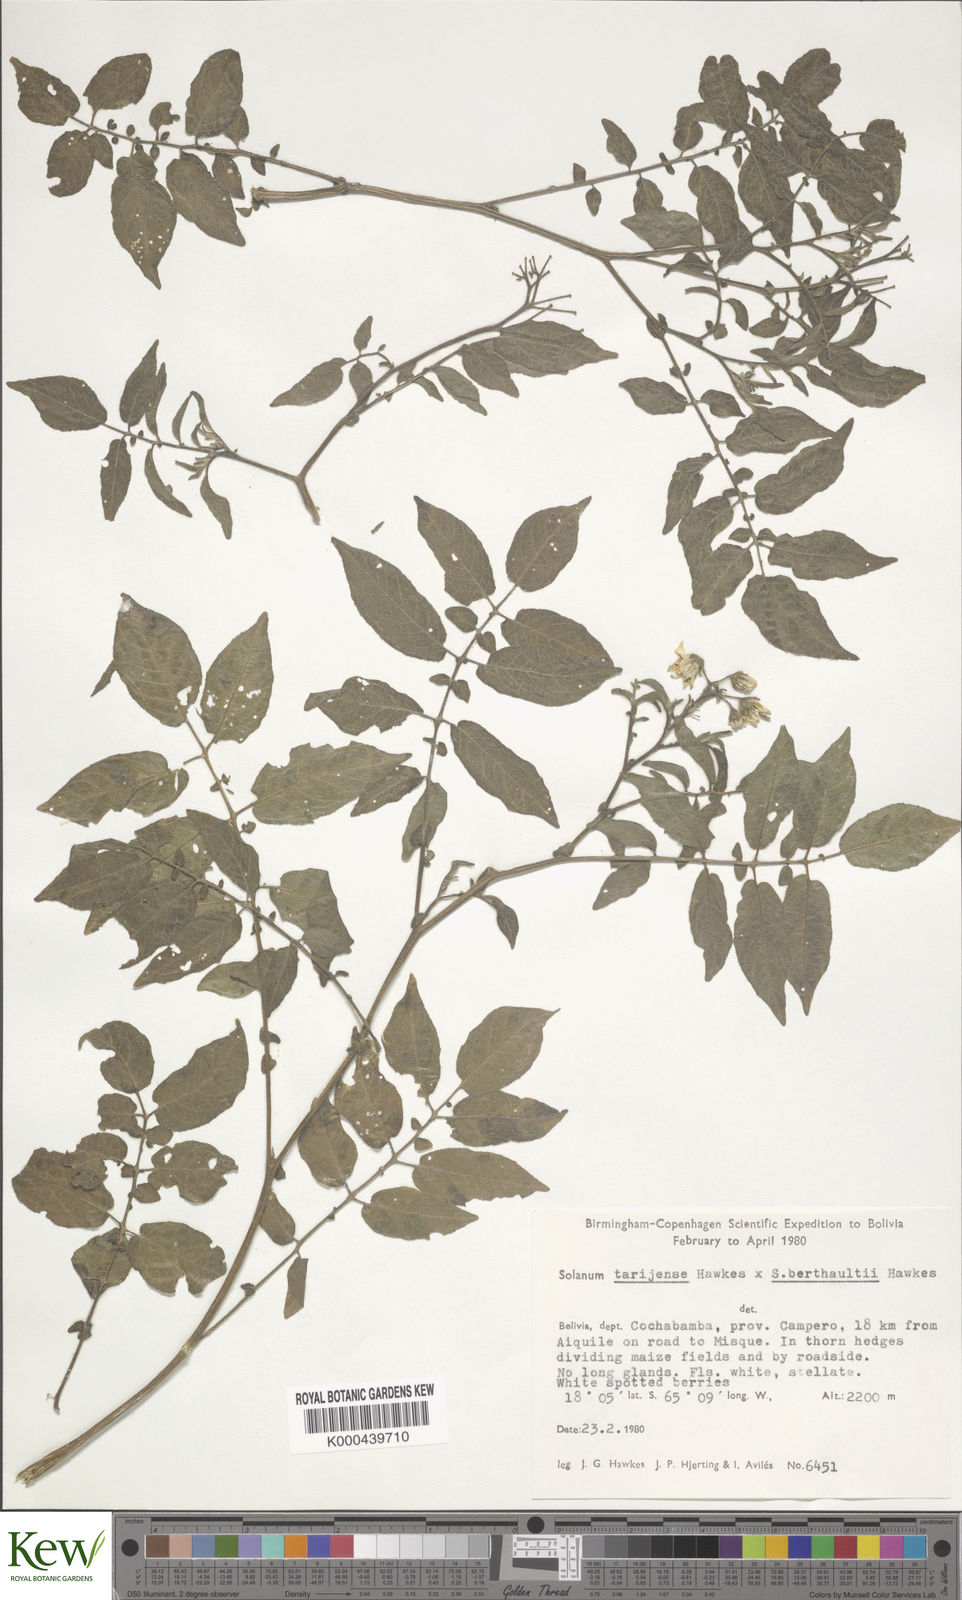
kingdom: Plantae
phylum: Tracheophyta
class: Magnoliopsida
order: Solanales
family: Solanaceae
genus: Solanum
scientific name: Solanum tarijense
